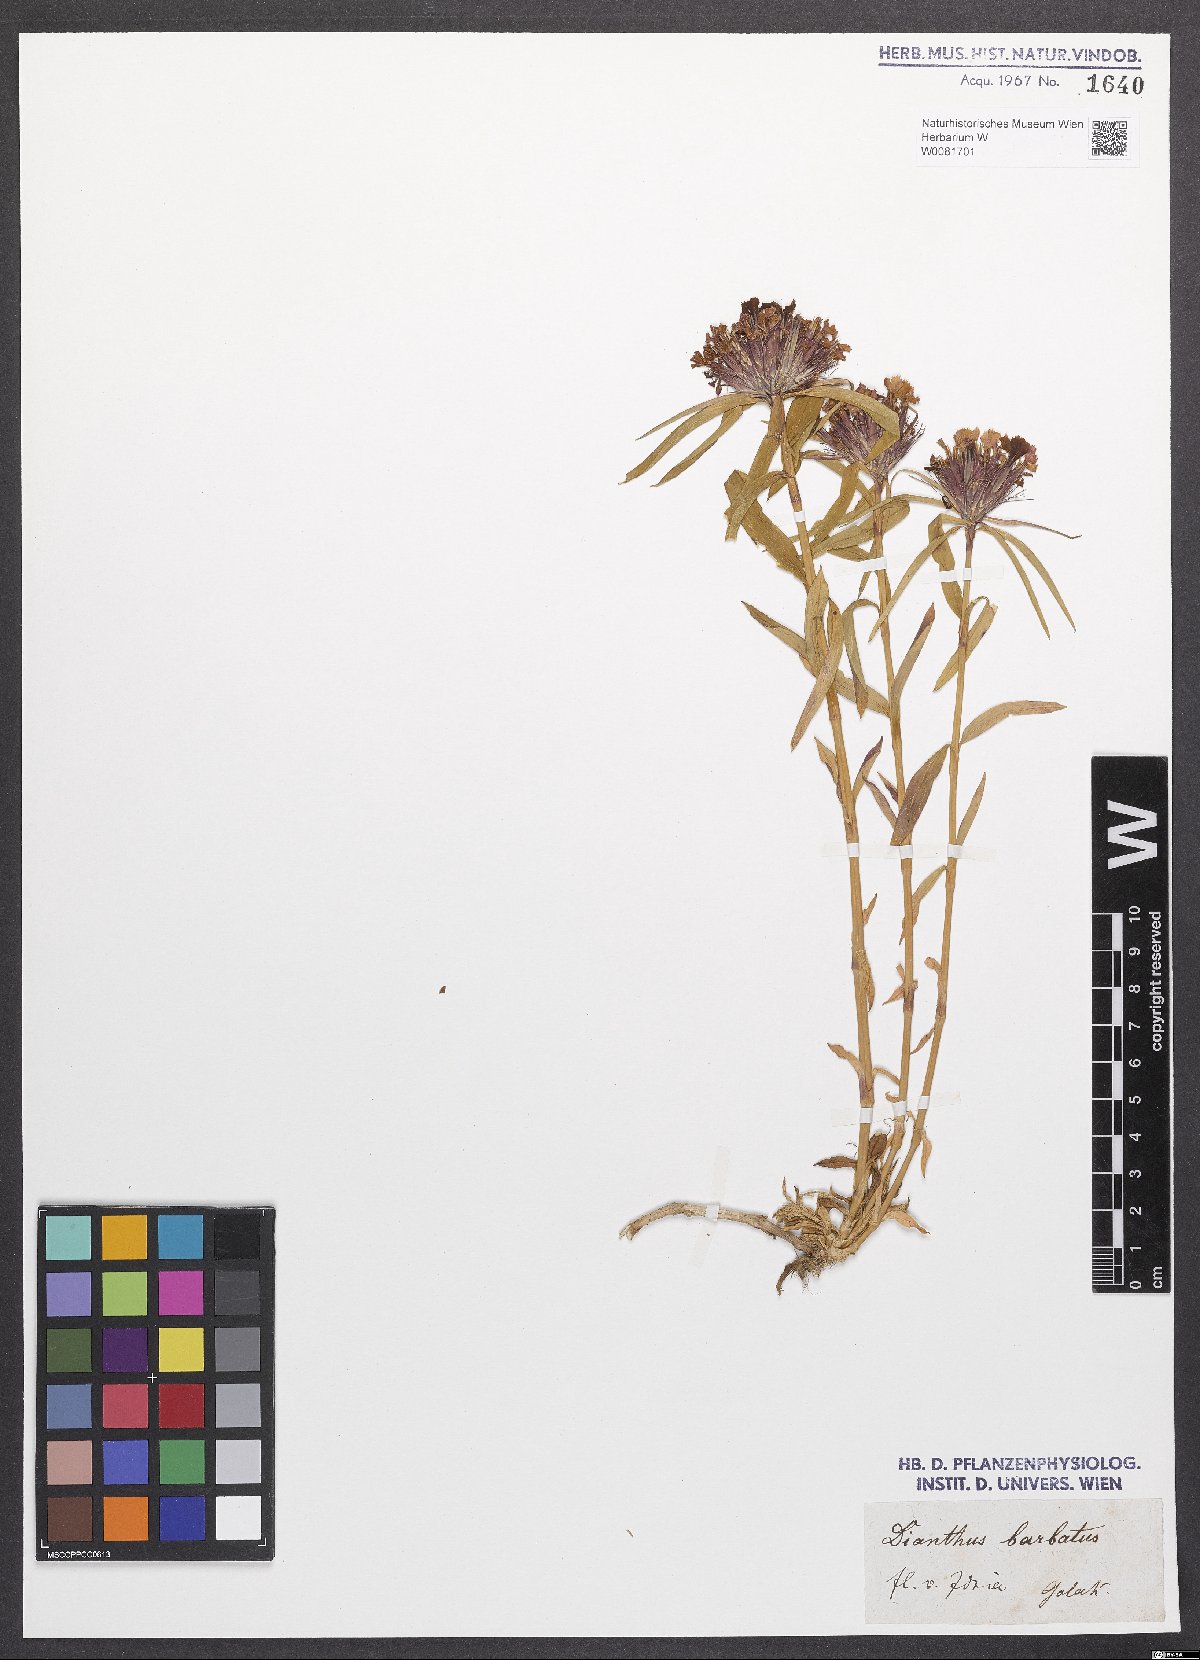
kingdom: Plantae
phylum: Tracheophyta
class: Magnoliopsida
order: Caryophyllales
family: Caryophyllaceae
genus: Dianthus
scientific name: Dianthus barbatus
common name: Sweet-william
